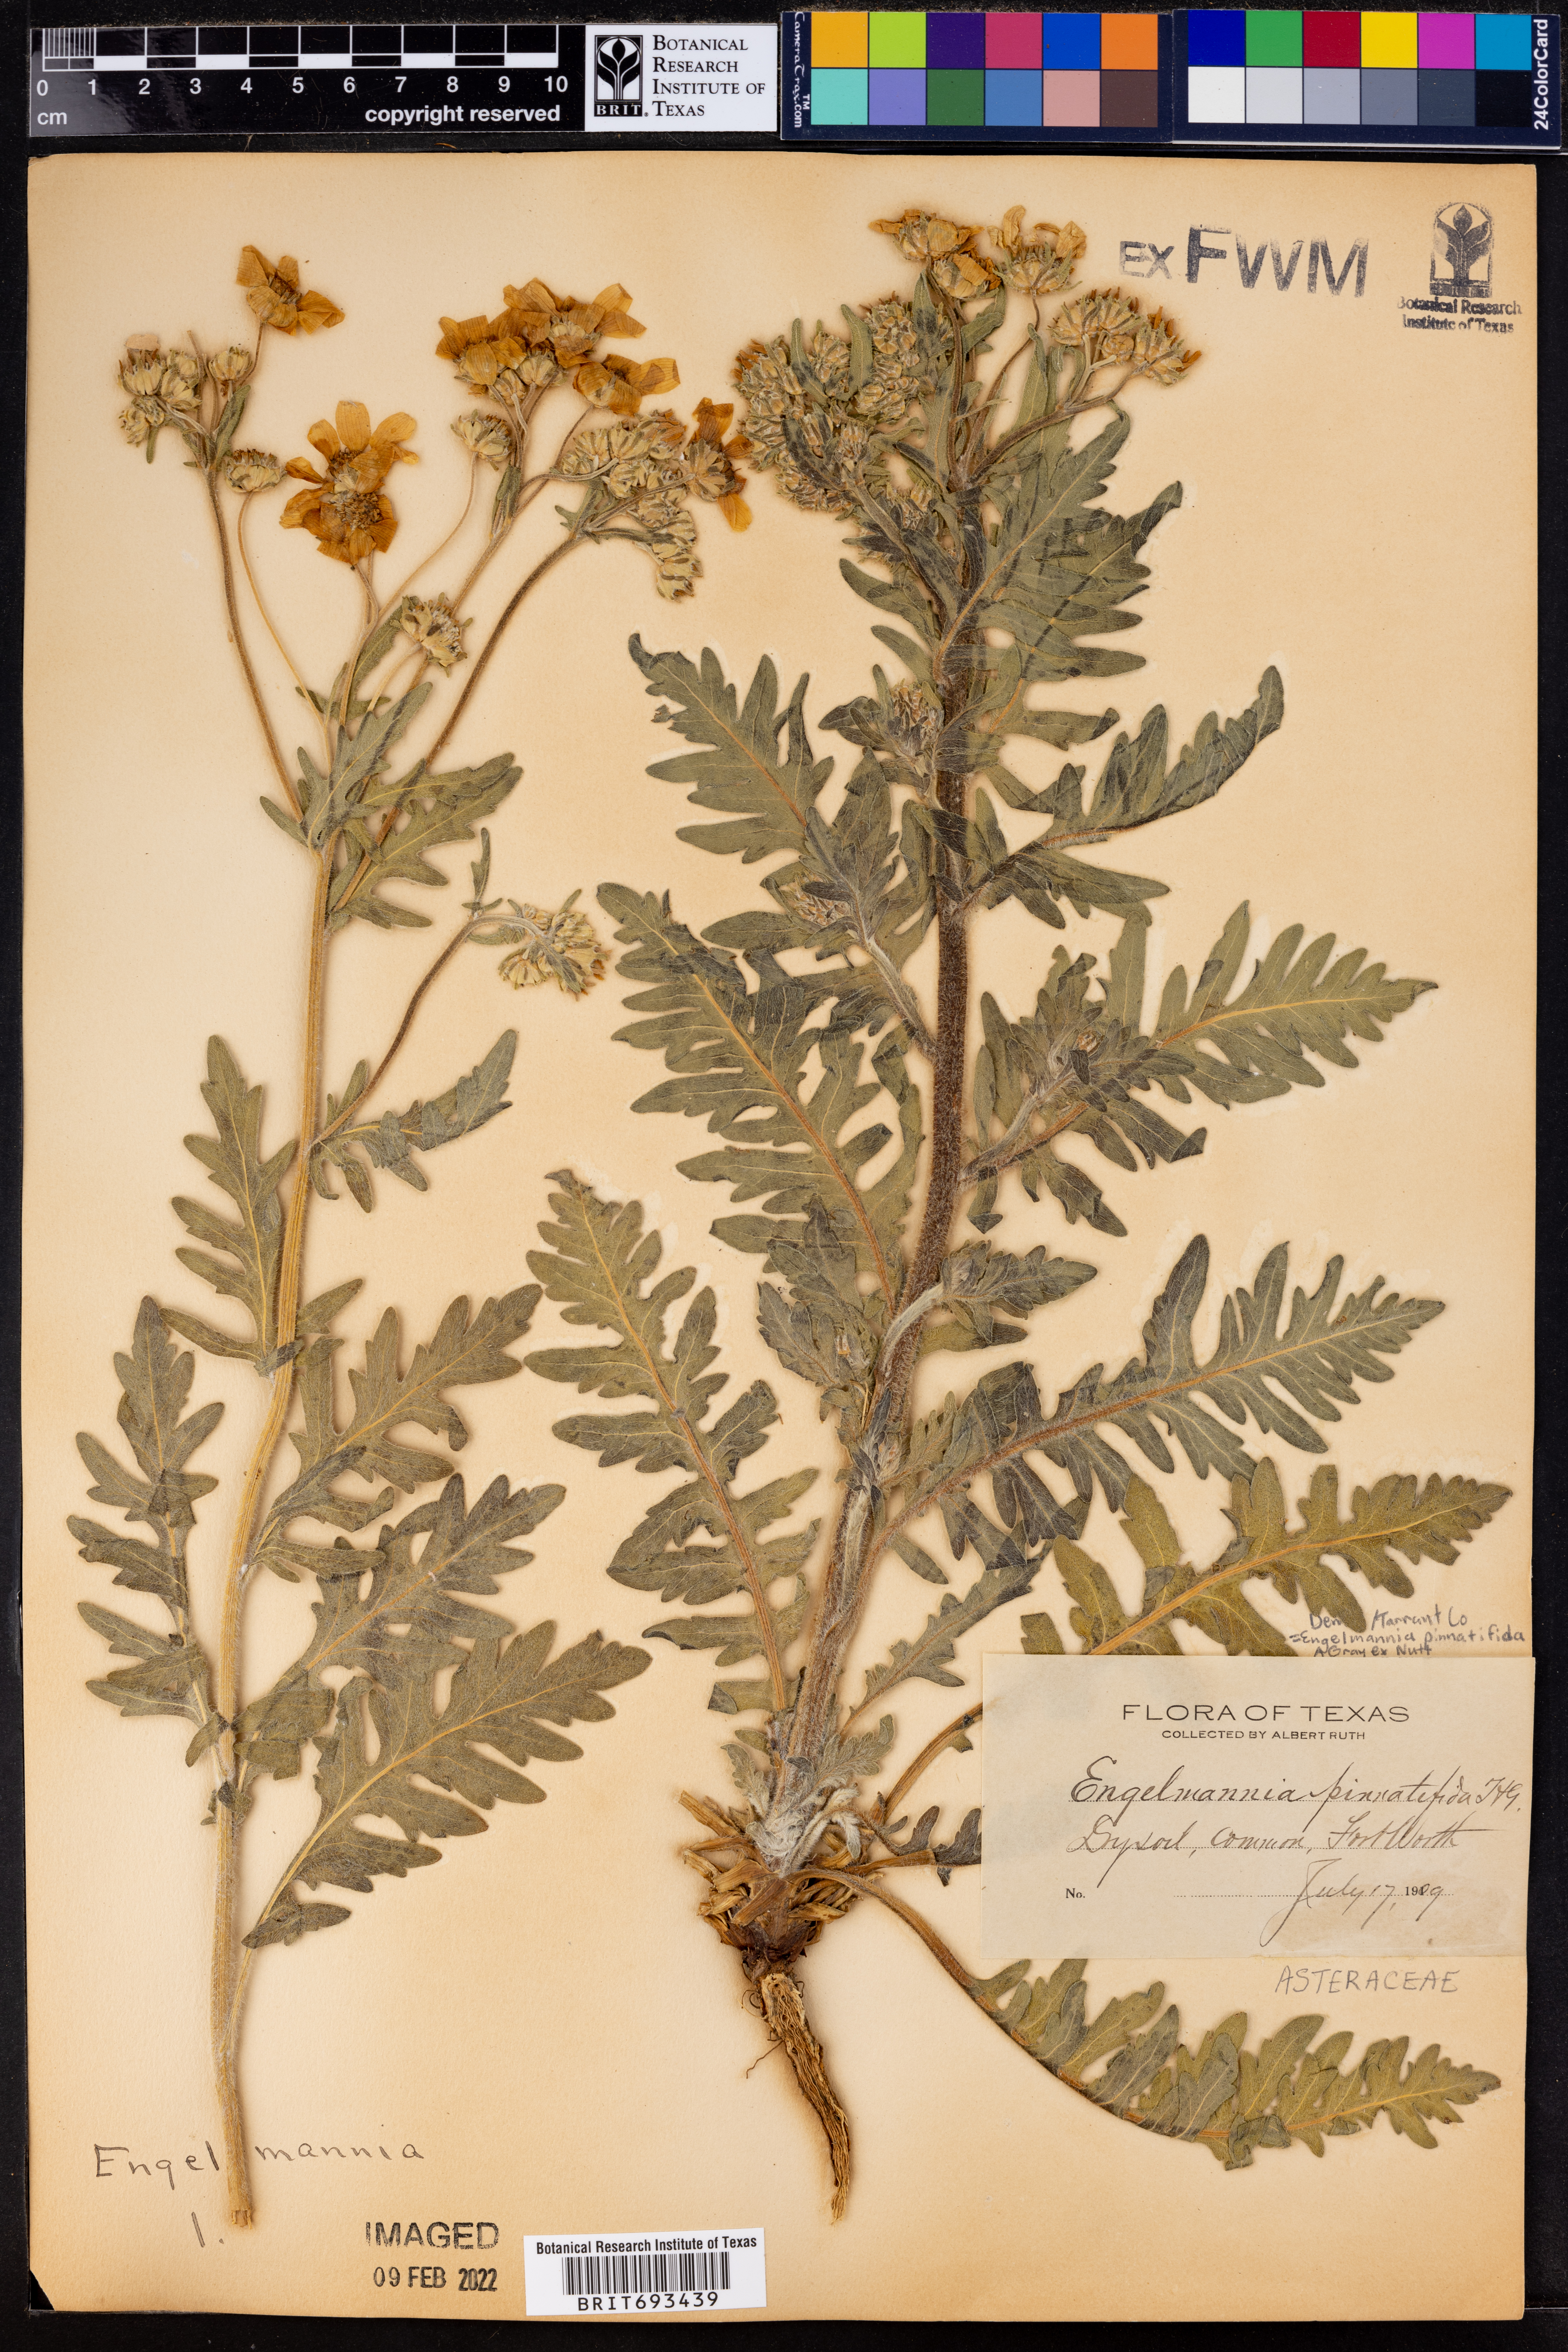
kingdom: Plantae
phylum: Tracheophyta
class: Magnoliopsida
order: Asterales
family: Asteraceae
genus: Engelmannia
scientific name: Engelmannia peristenia
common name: Engelmann's daisy
